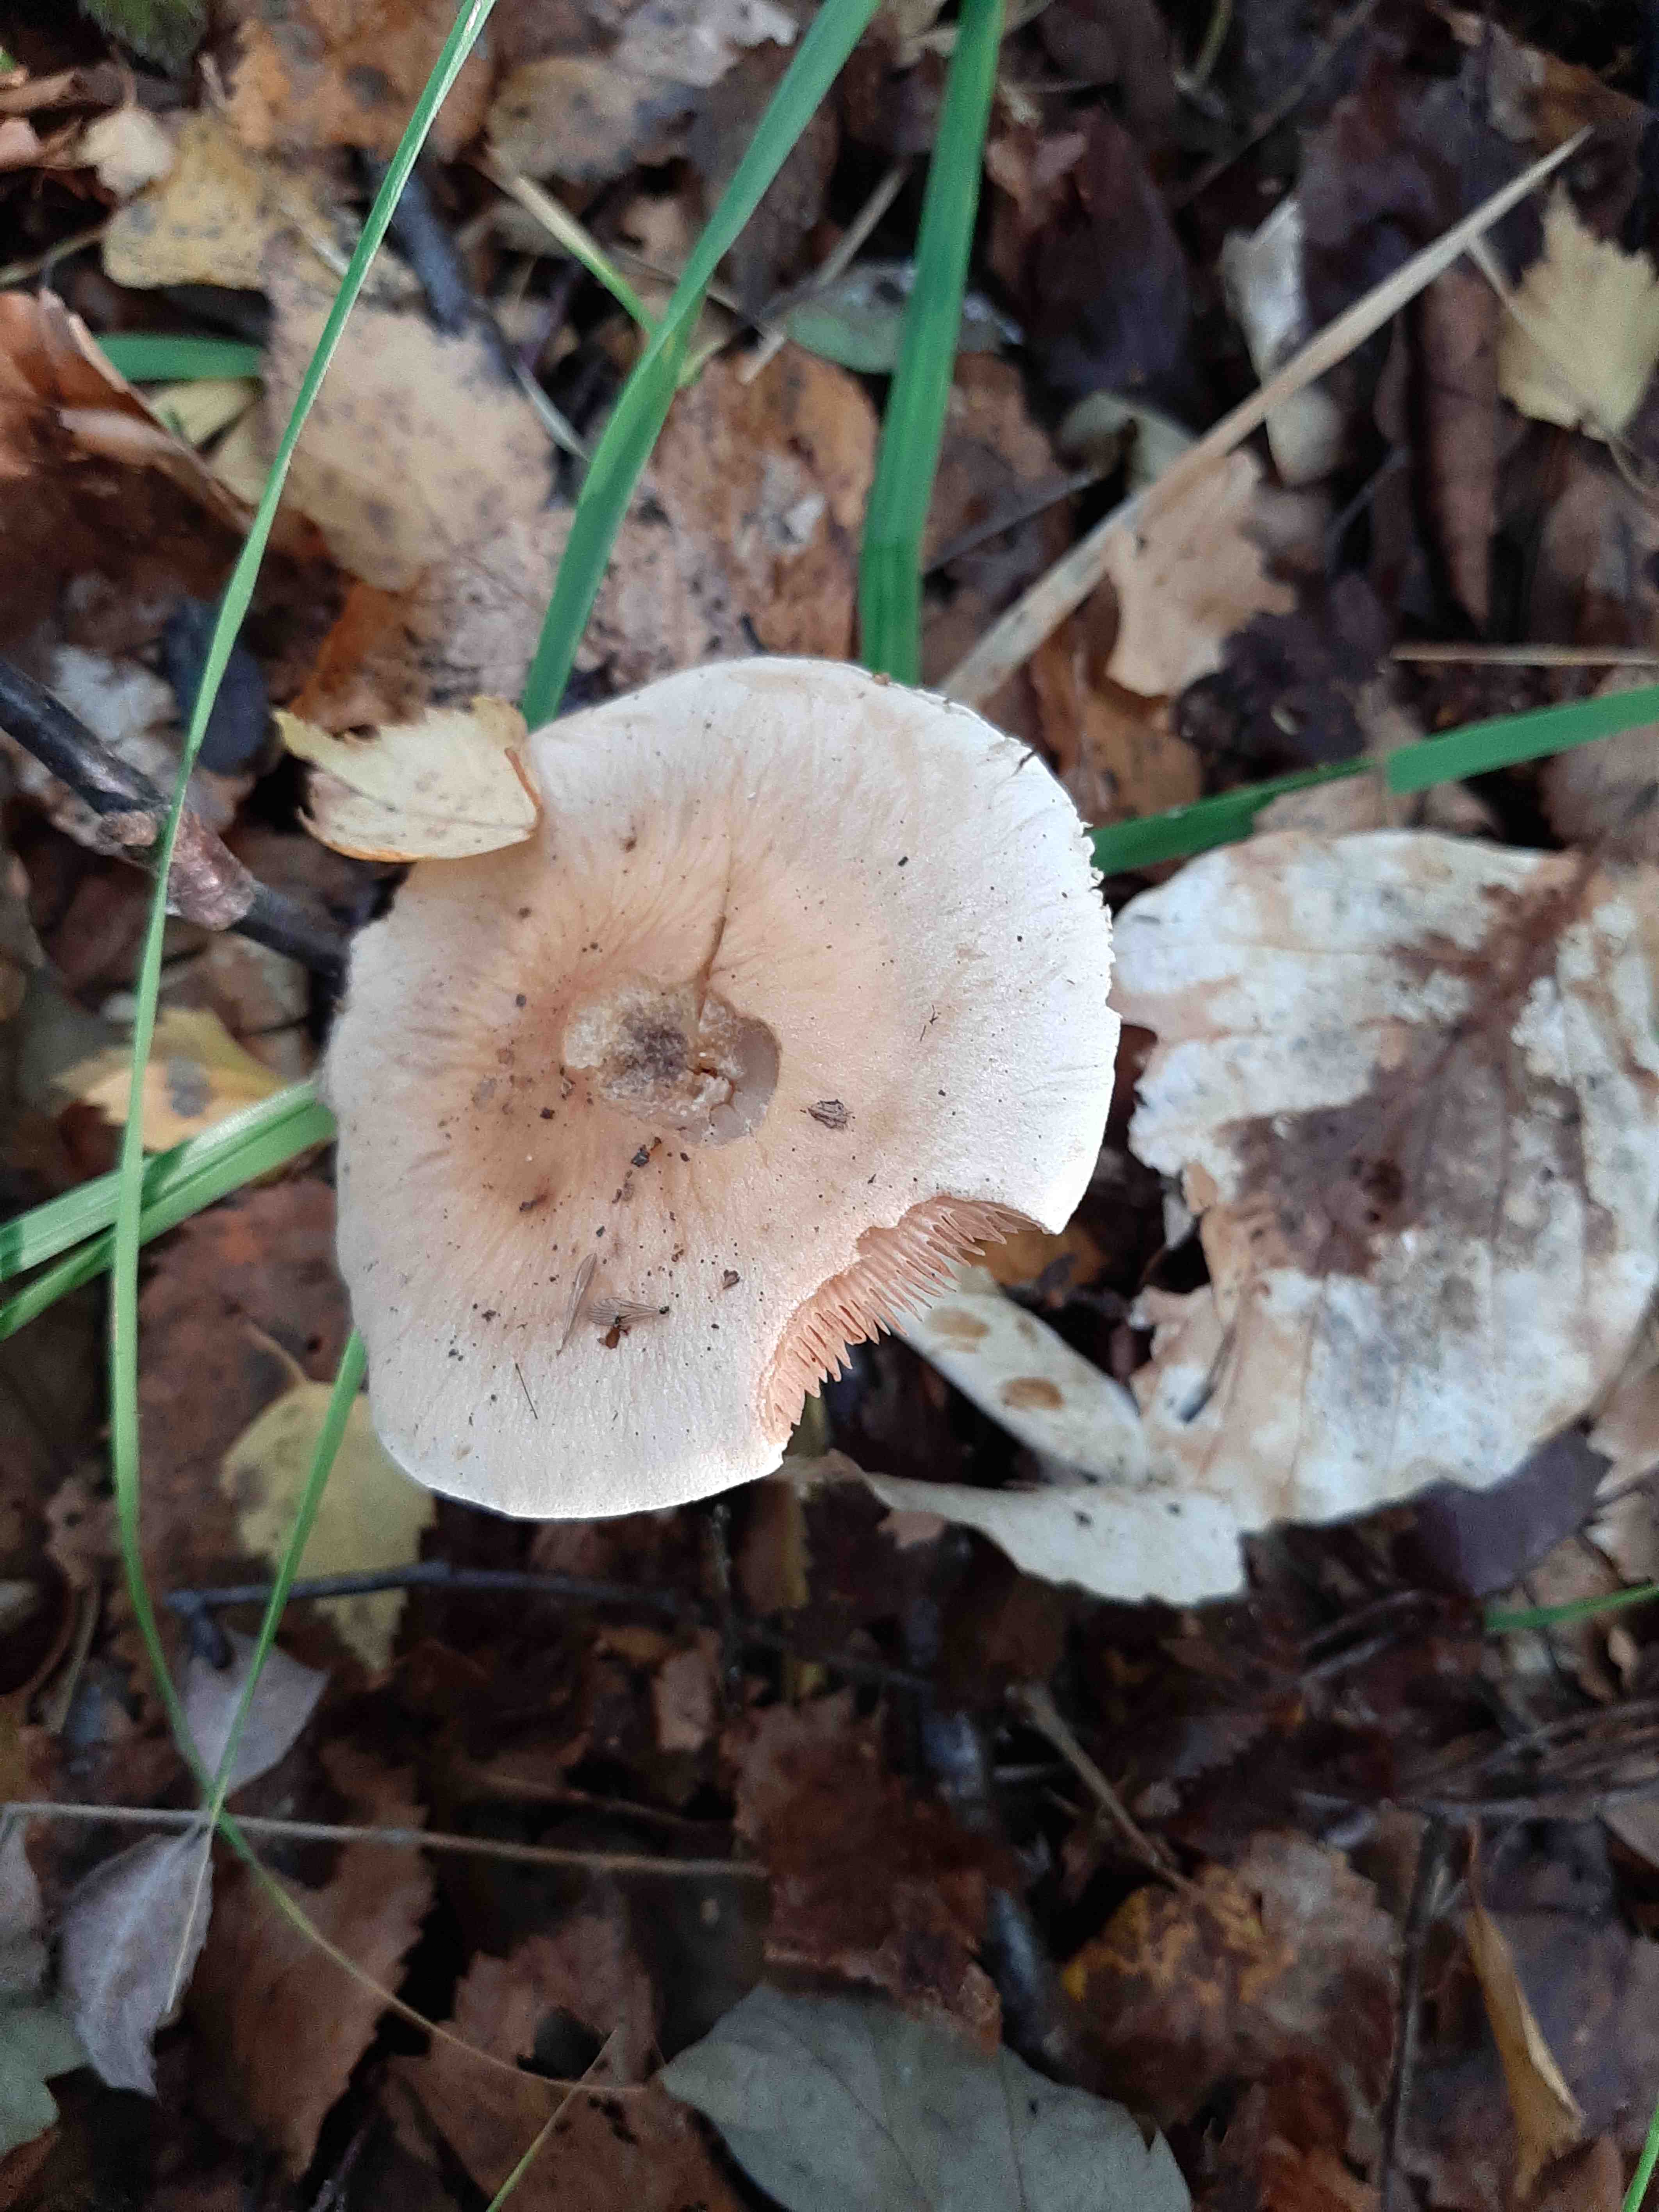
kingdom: Fungi
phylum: Basidiomycota
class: Agaricomycetes
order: Agaricales
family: Hymenogastraceae
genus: Hebeloma
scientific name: Hebeloma
